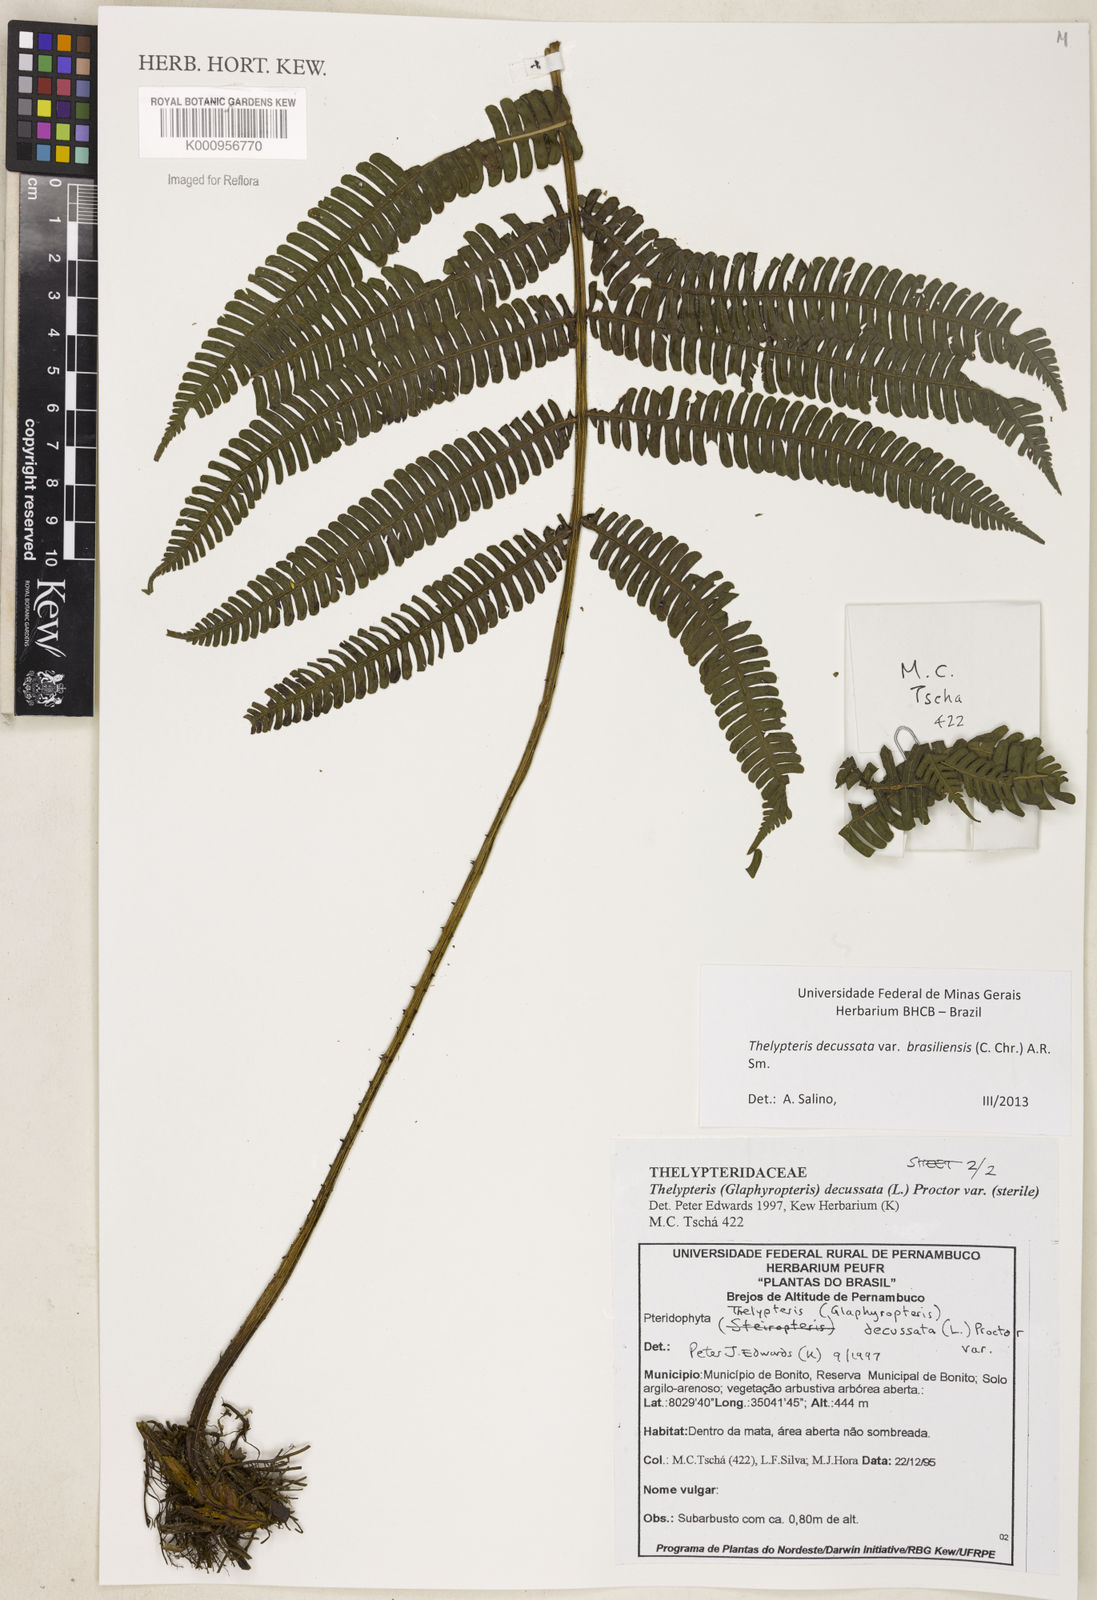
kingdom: Plantae
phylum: Tracheophyta
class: Polypodiopsida
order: Polypodiales
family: Thelypteridaceae
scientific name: Thelypteridaceae
